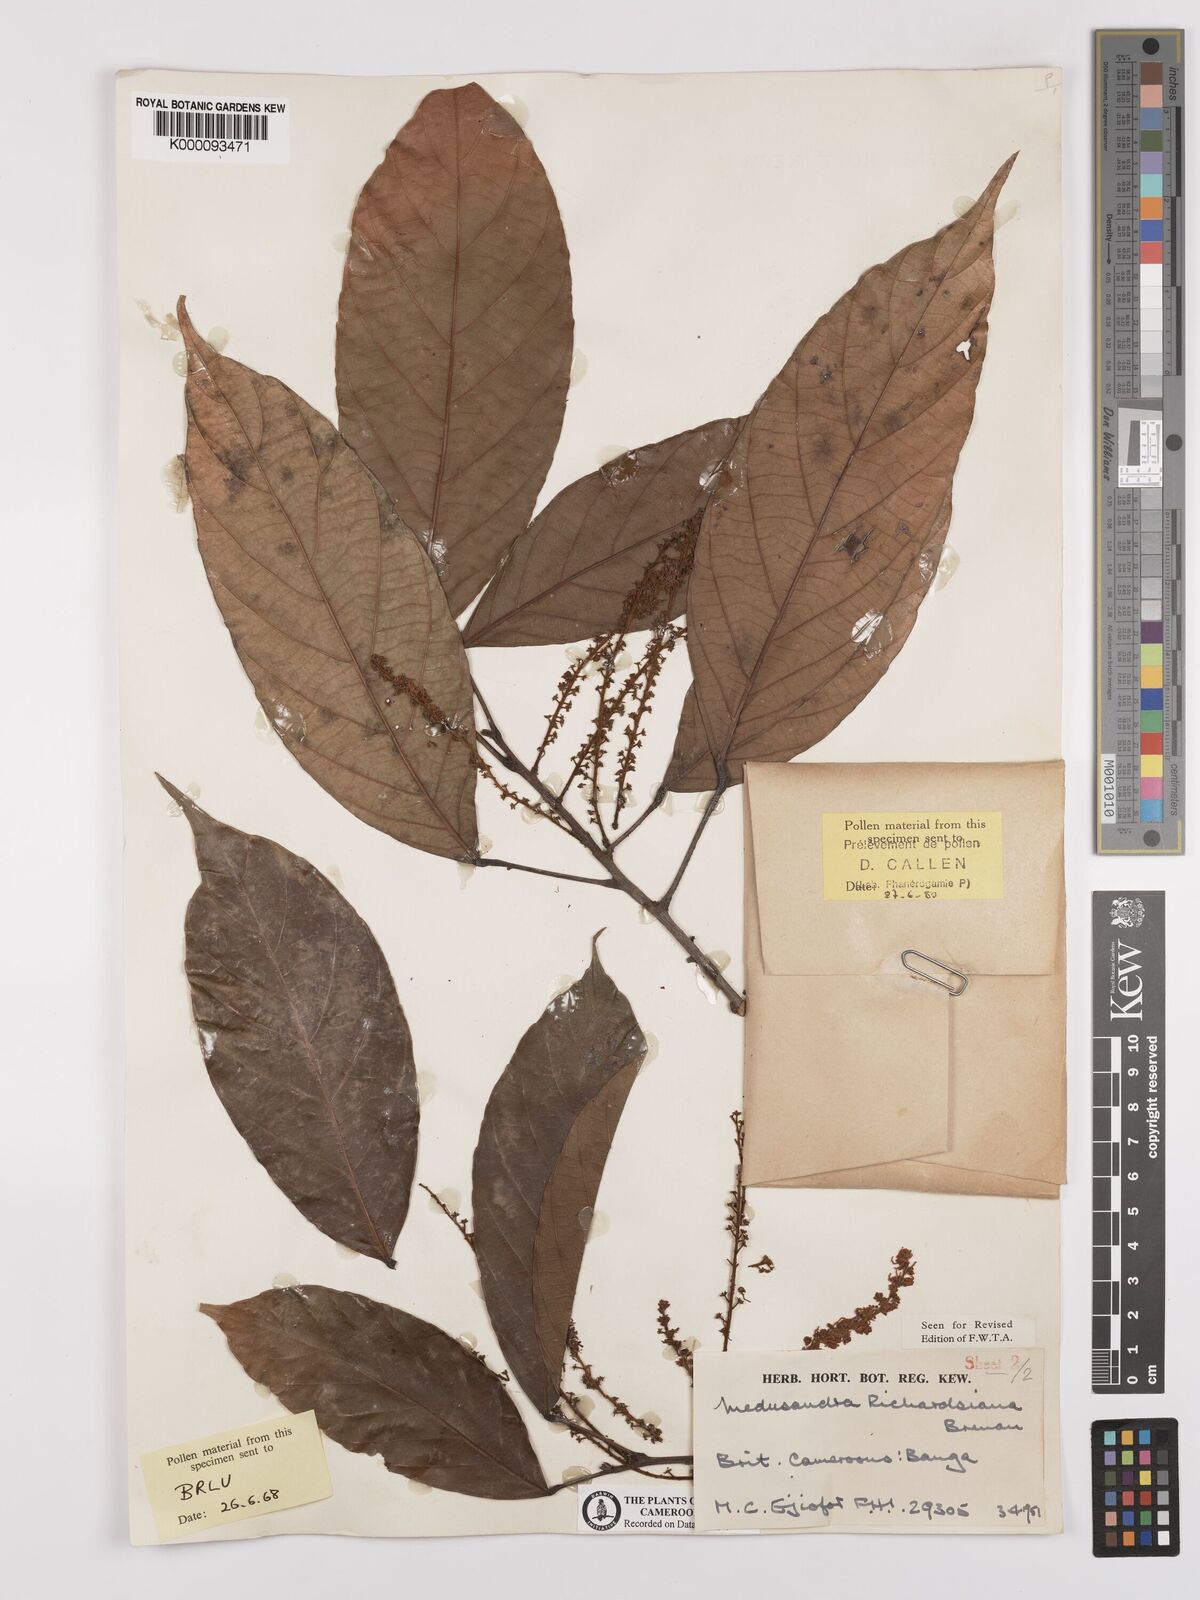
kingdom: Plantae
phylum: Tracheophyta
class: Magnoliopsida
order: Saxifragales
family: Peridiscaceae
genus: Medusandra
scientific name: Medusandra richardsiana
